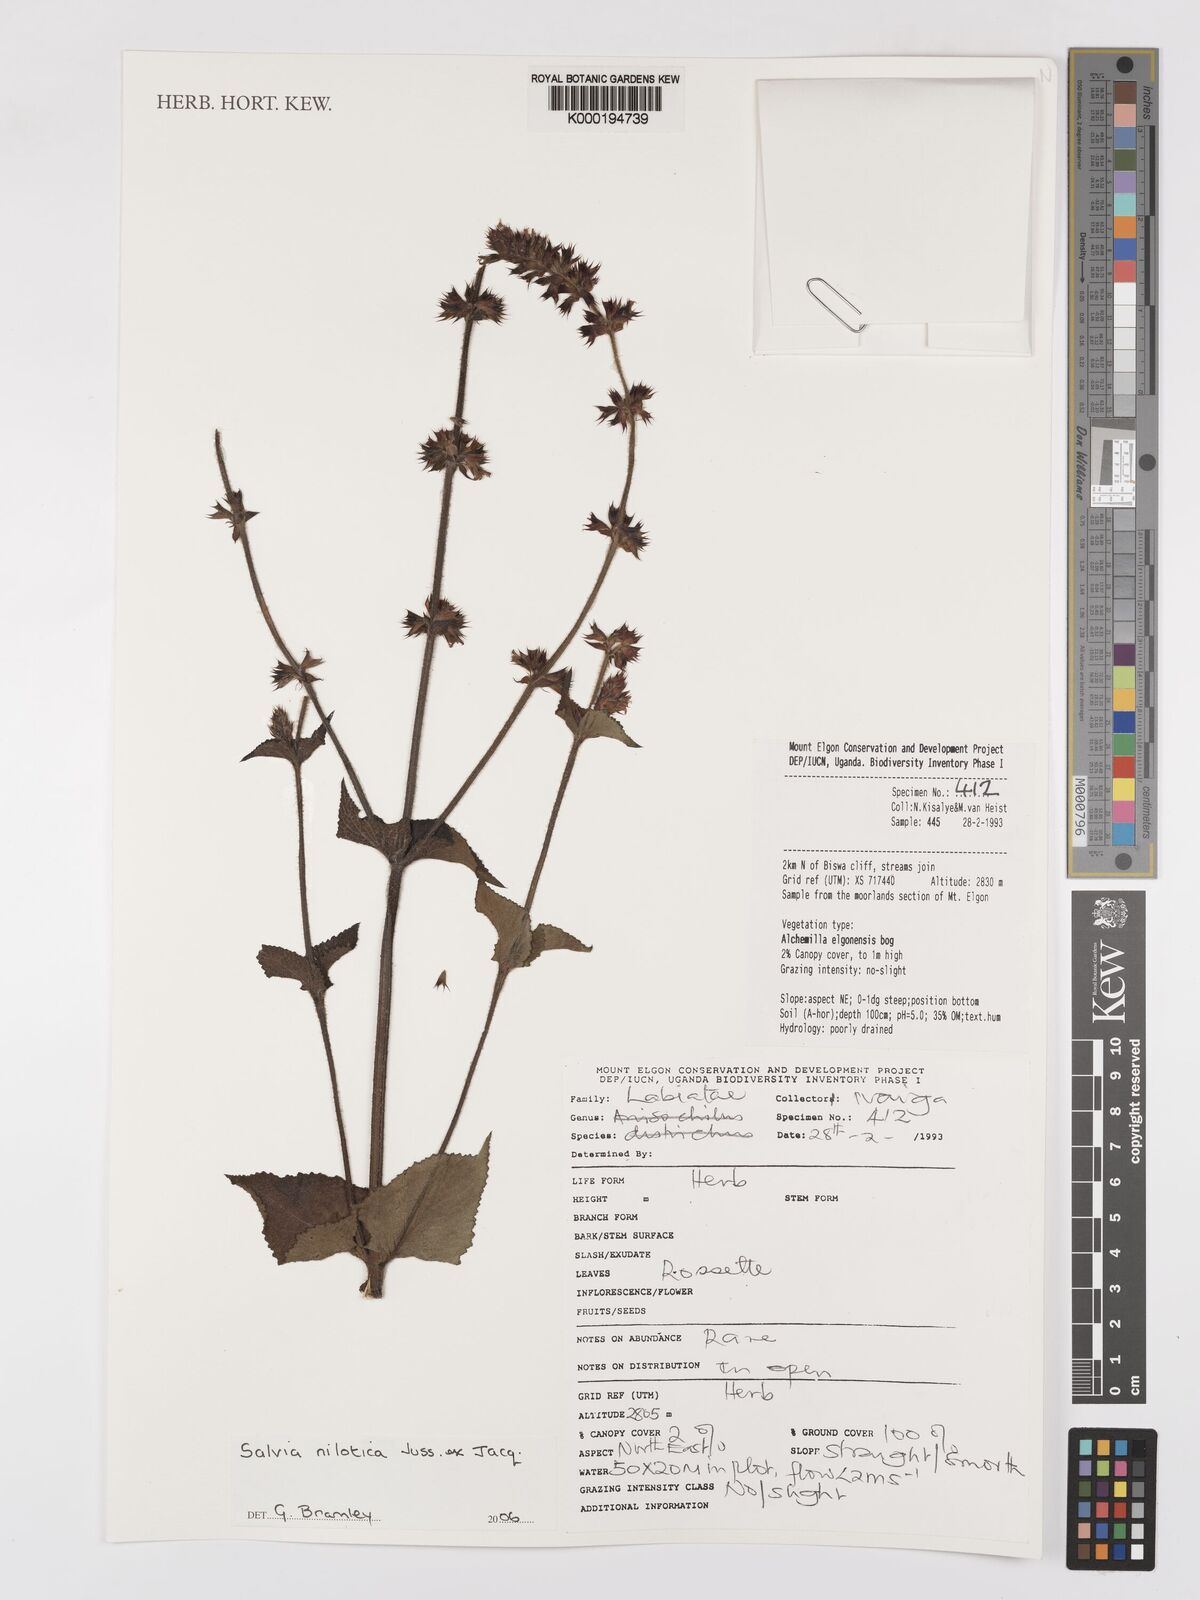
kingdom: Plantae
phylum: Tracheophyta
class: Magnoliopsida
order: Lamiales
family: Lamiaceae
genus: Salvia
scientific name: Salvia nilotica
